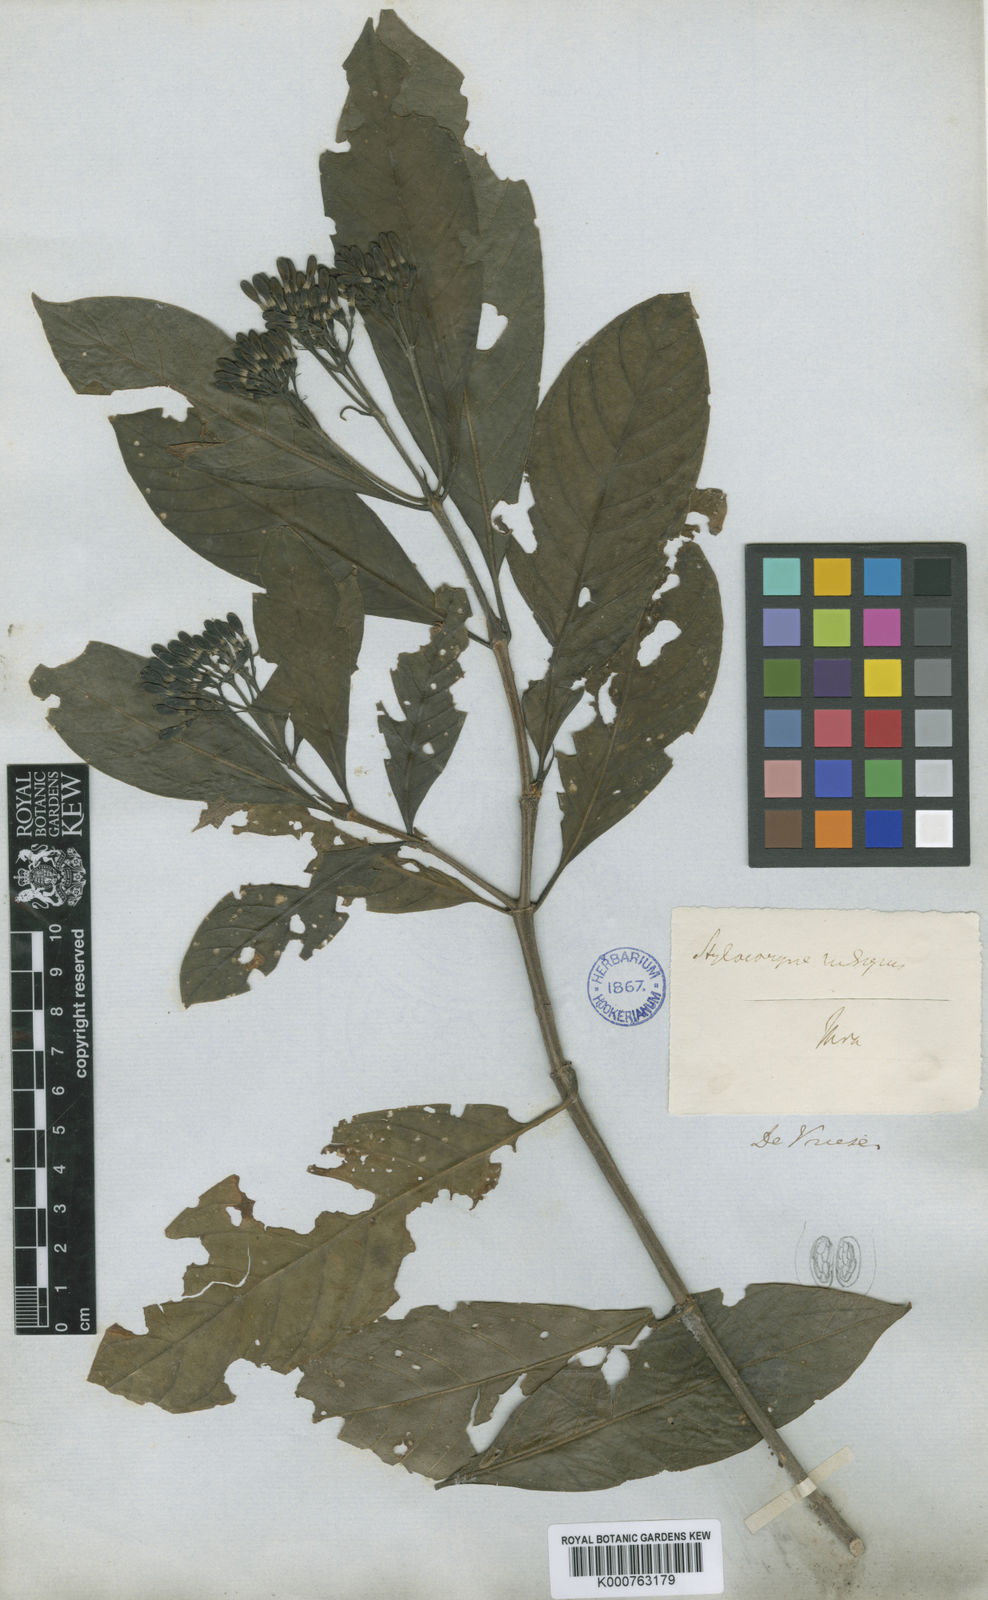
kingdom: Plantae
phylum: Tracheophyta
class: Magnoliopsida
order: Gentianales
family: Rubiaceae
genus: Tarenna
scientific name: Tarenna
